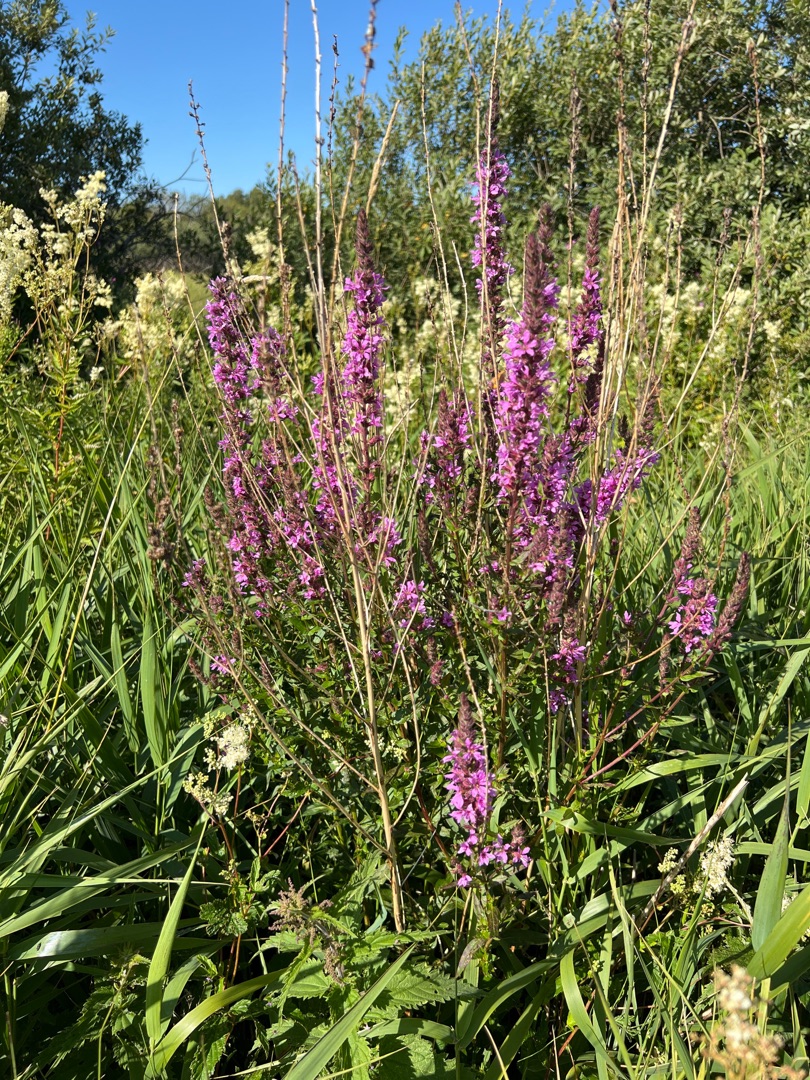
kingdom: Plantae
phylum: Tracheophyta
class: Magnoliopsida
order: Myrtales
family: Lythraceae
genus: Lythrum
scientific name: Lythrum salicaria
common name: Kattehale
